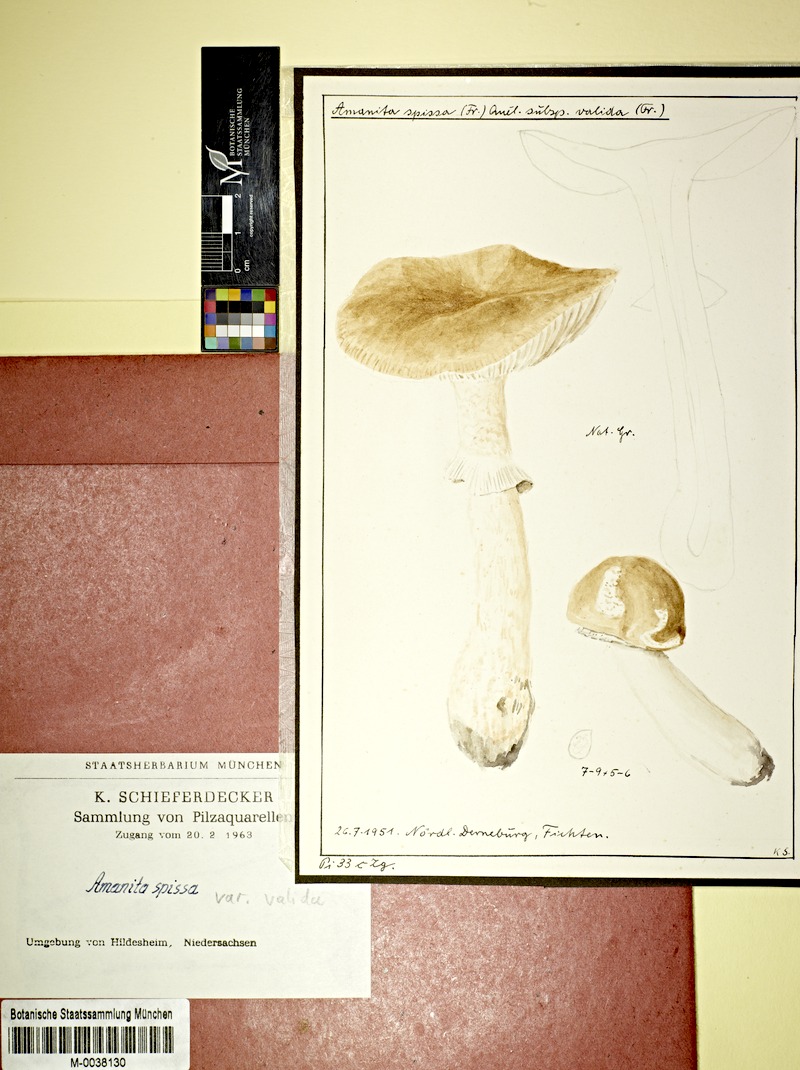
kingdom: Plantae
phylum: Tracheophyta
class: Pinopsida
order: Pinales
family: Pinaceae
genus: Picea
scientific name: Picea
